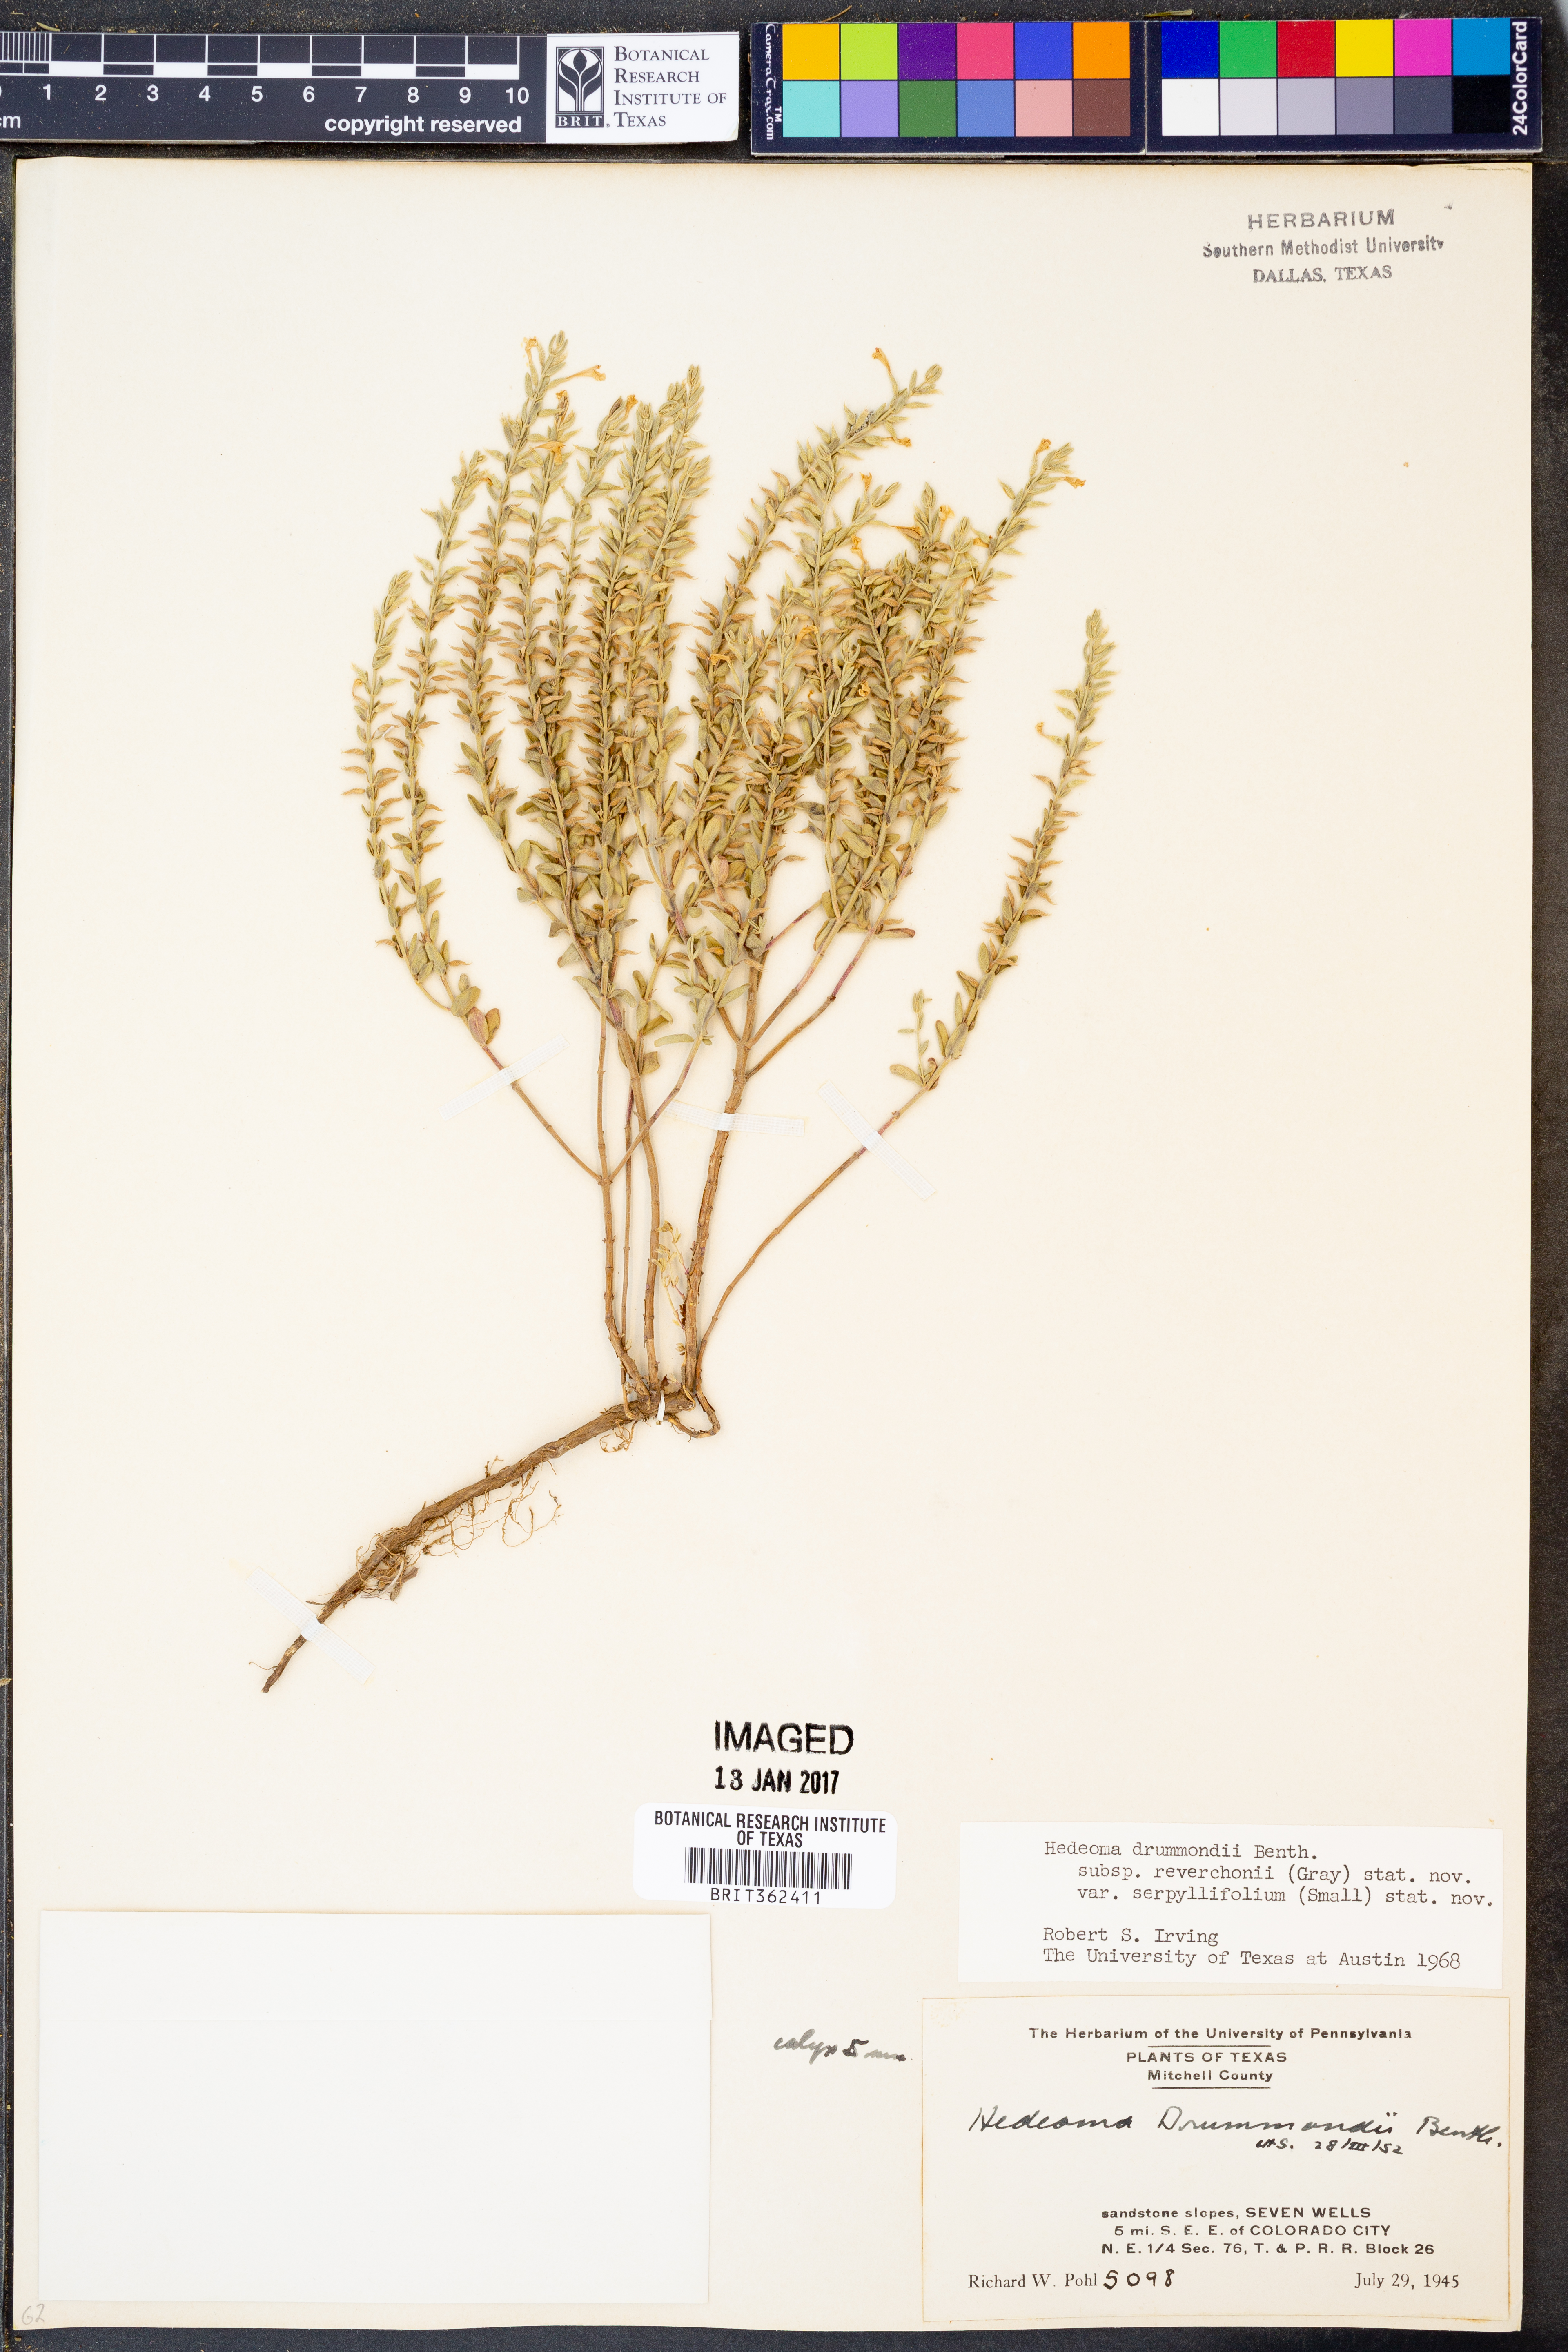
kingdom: Plantae
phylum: Tracheophyta
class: Magnoliopsida
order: Lamiales
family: Lamiaceae
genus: Hedeoma
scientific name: Hedeoma reverchonii
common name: Reverchon's false penny-royal
